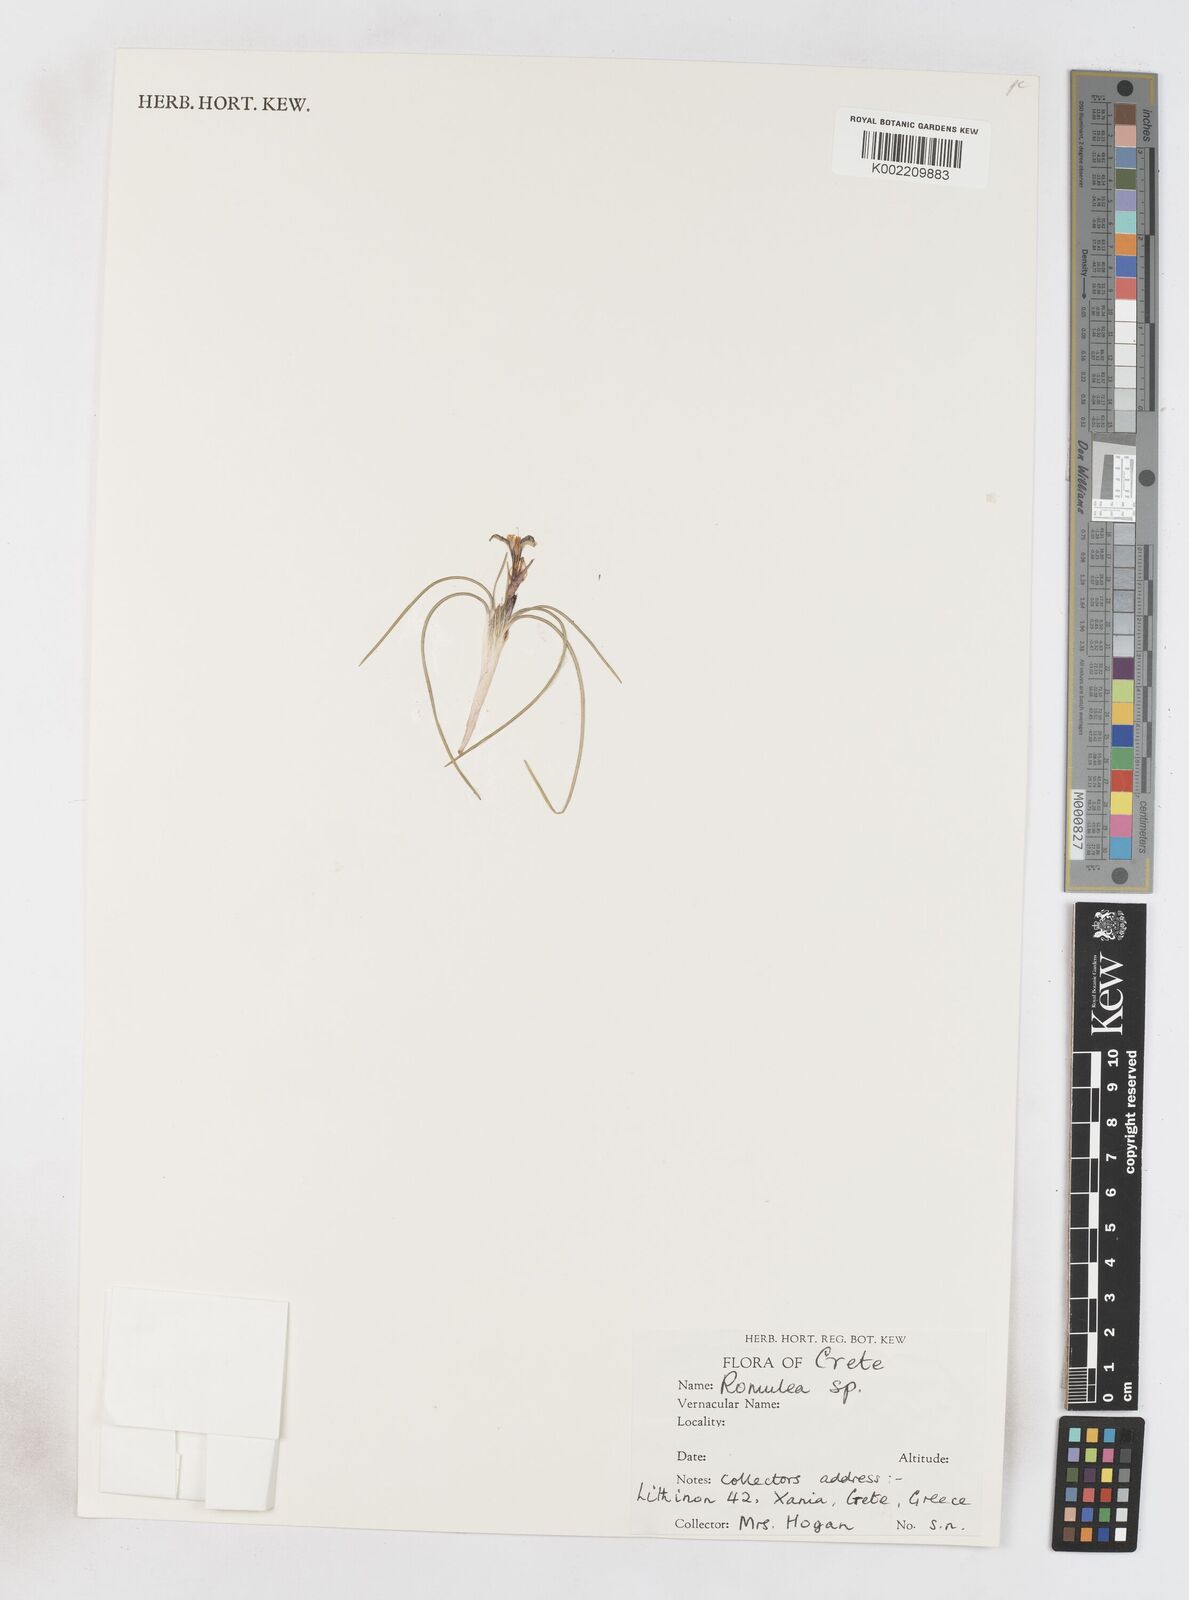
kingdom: Plantae
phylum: Tracheophyta
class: Liliopsida
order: Asparagales
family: Iridaceae
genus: Romulea
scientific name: Romulea
